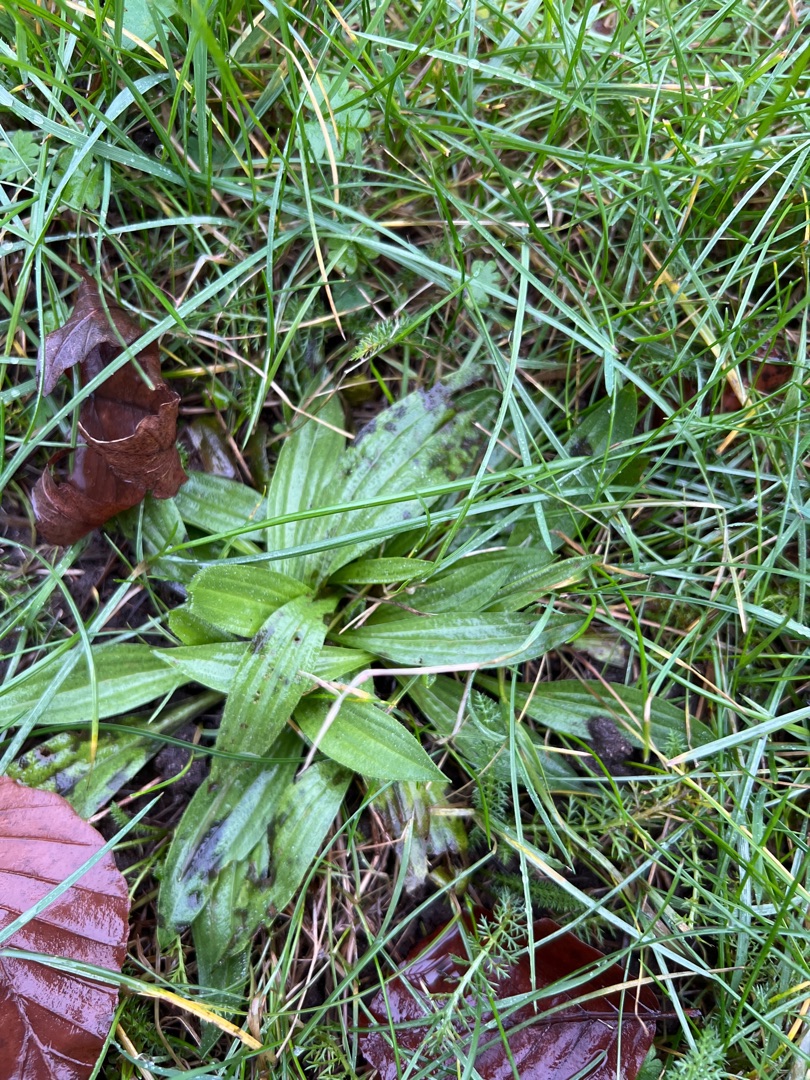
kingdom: Plantae
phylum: Tracheophyta
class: Magnoliopsida
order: Lamiales
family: Plantaginaceae
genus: Plantago
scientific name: Plantago lanceolata
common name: Lancet-vejbred
